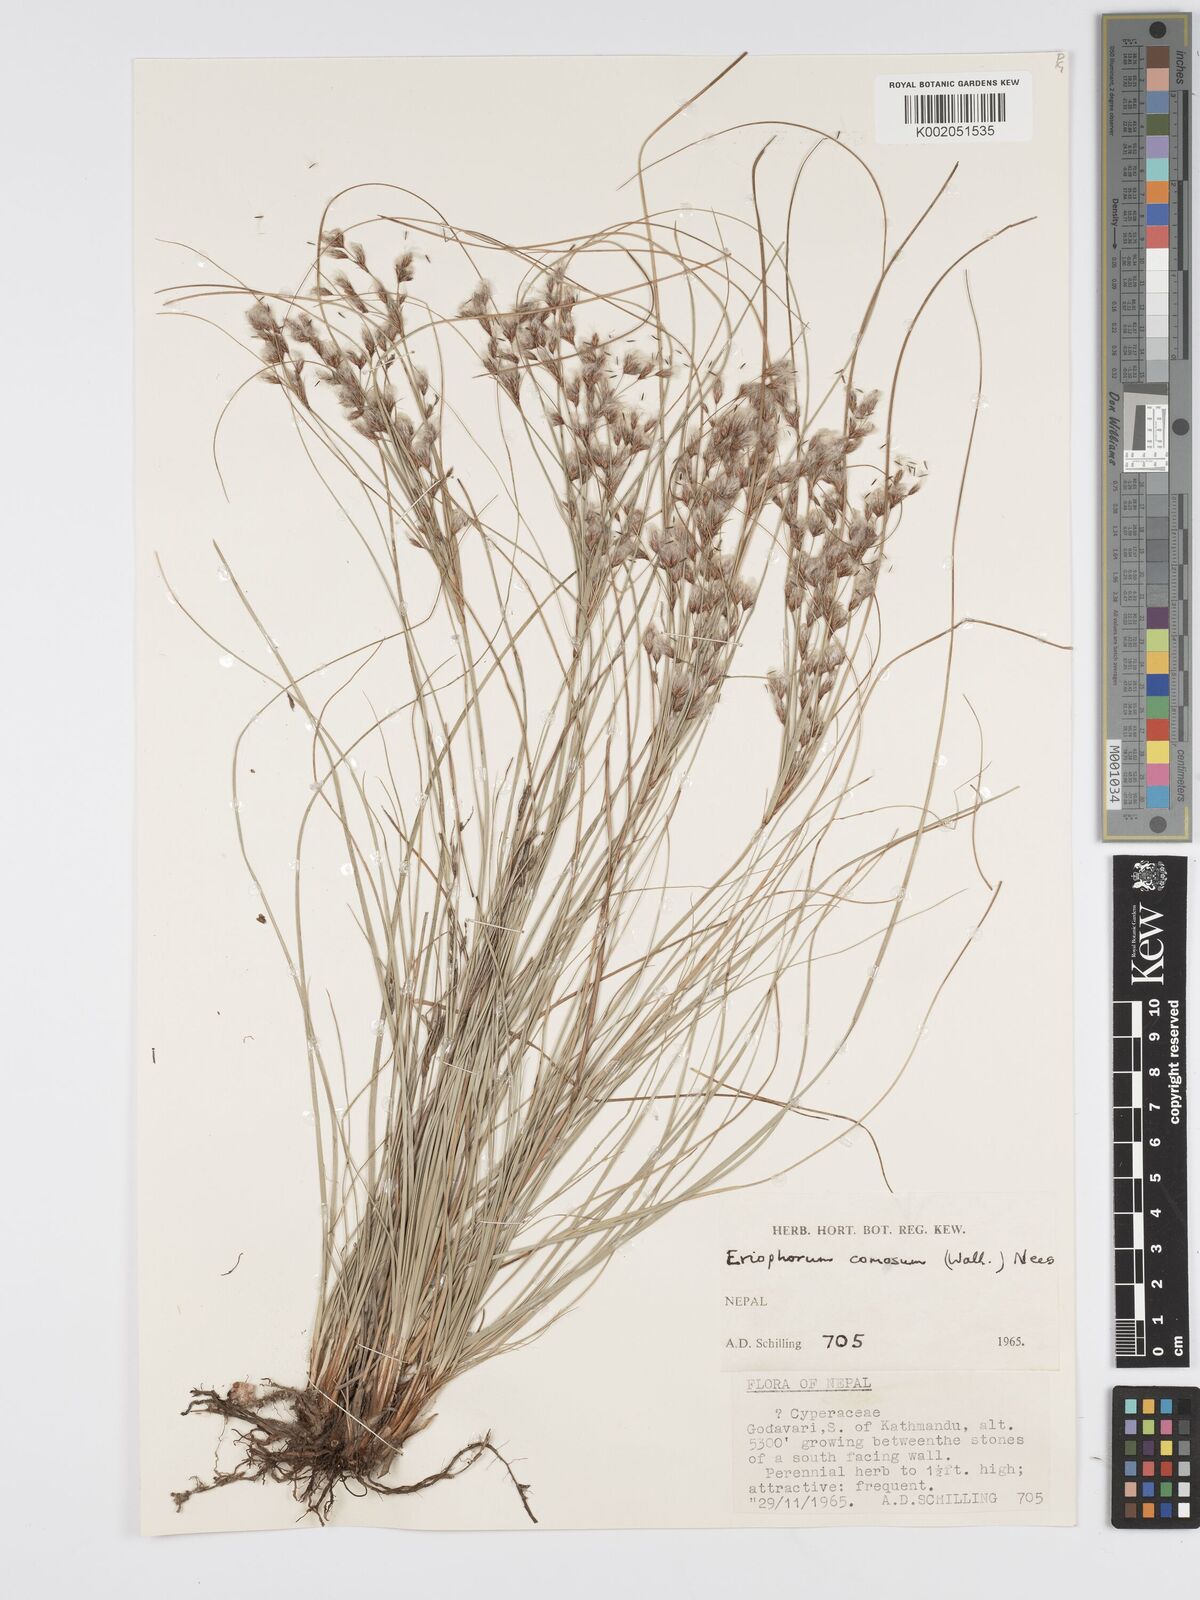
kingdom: Plantae
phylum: Tracheophyta
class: Liliopsida
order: Poales
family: Cyperaceae
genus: Erioscirpus
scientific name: Erioscirpus comosus
